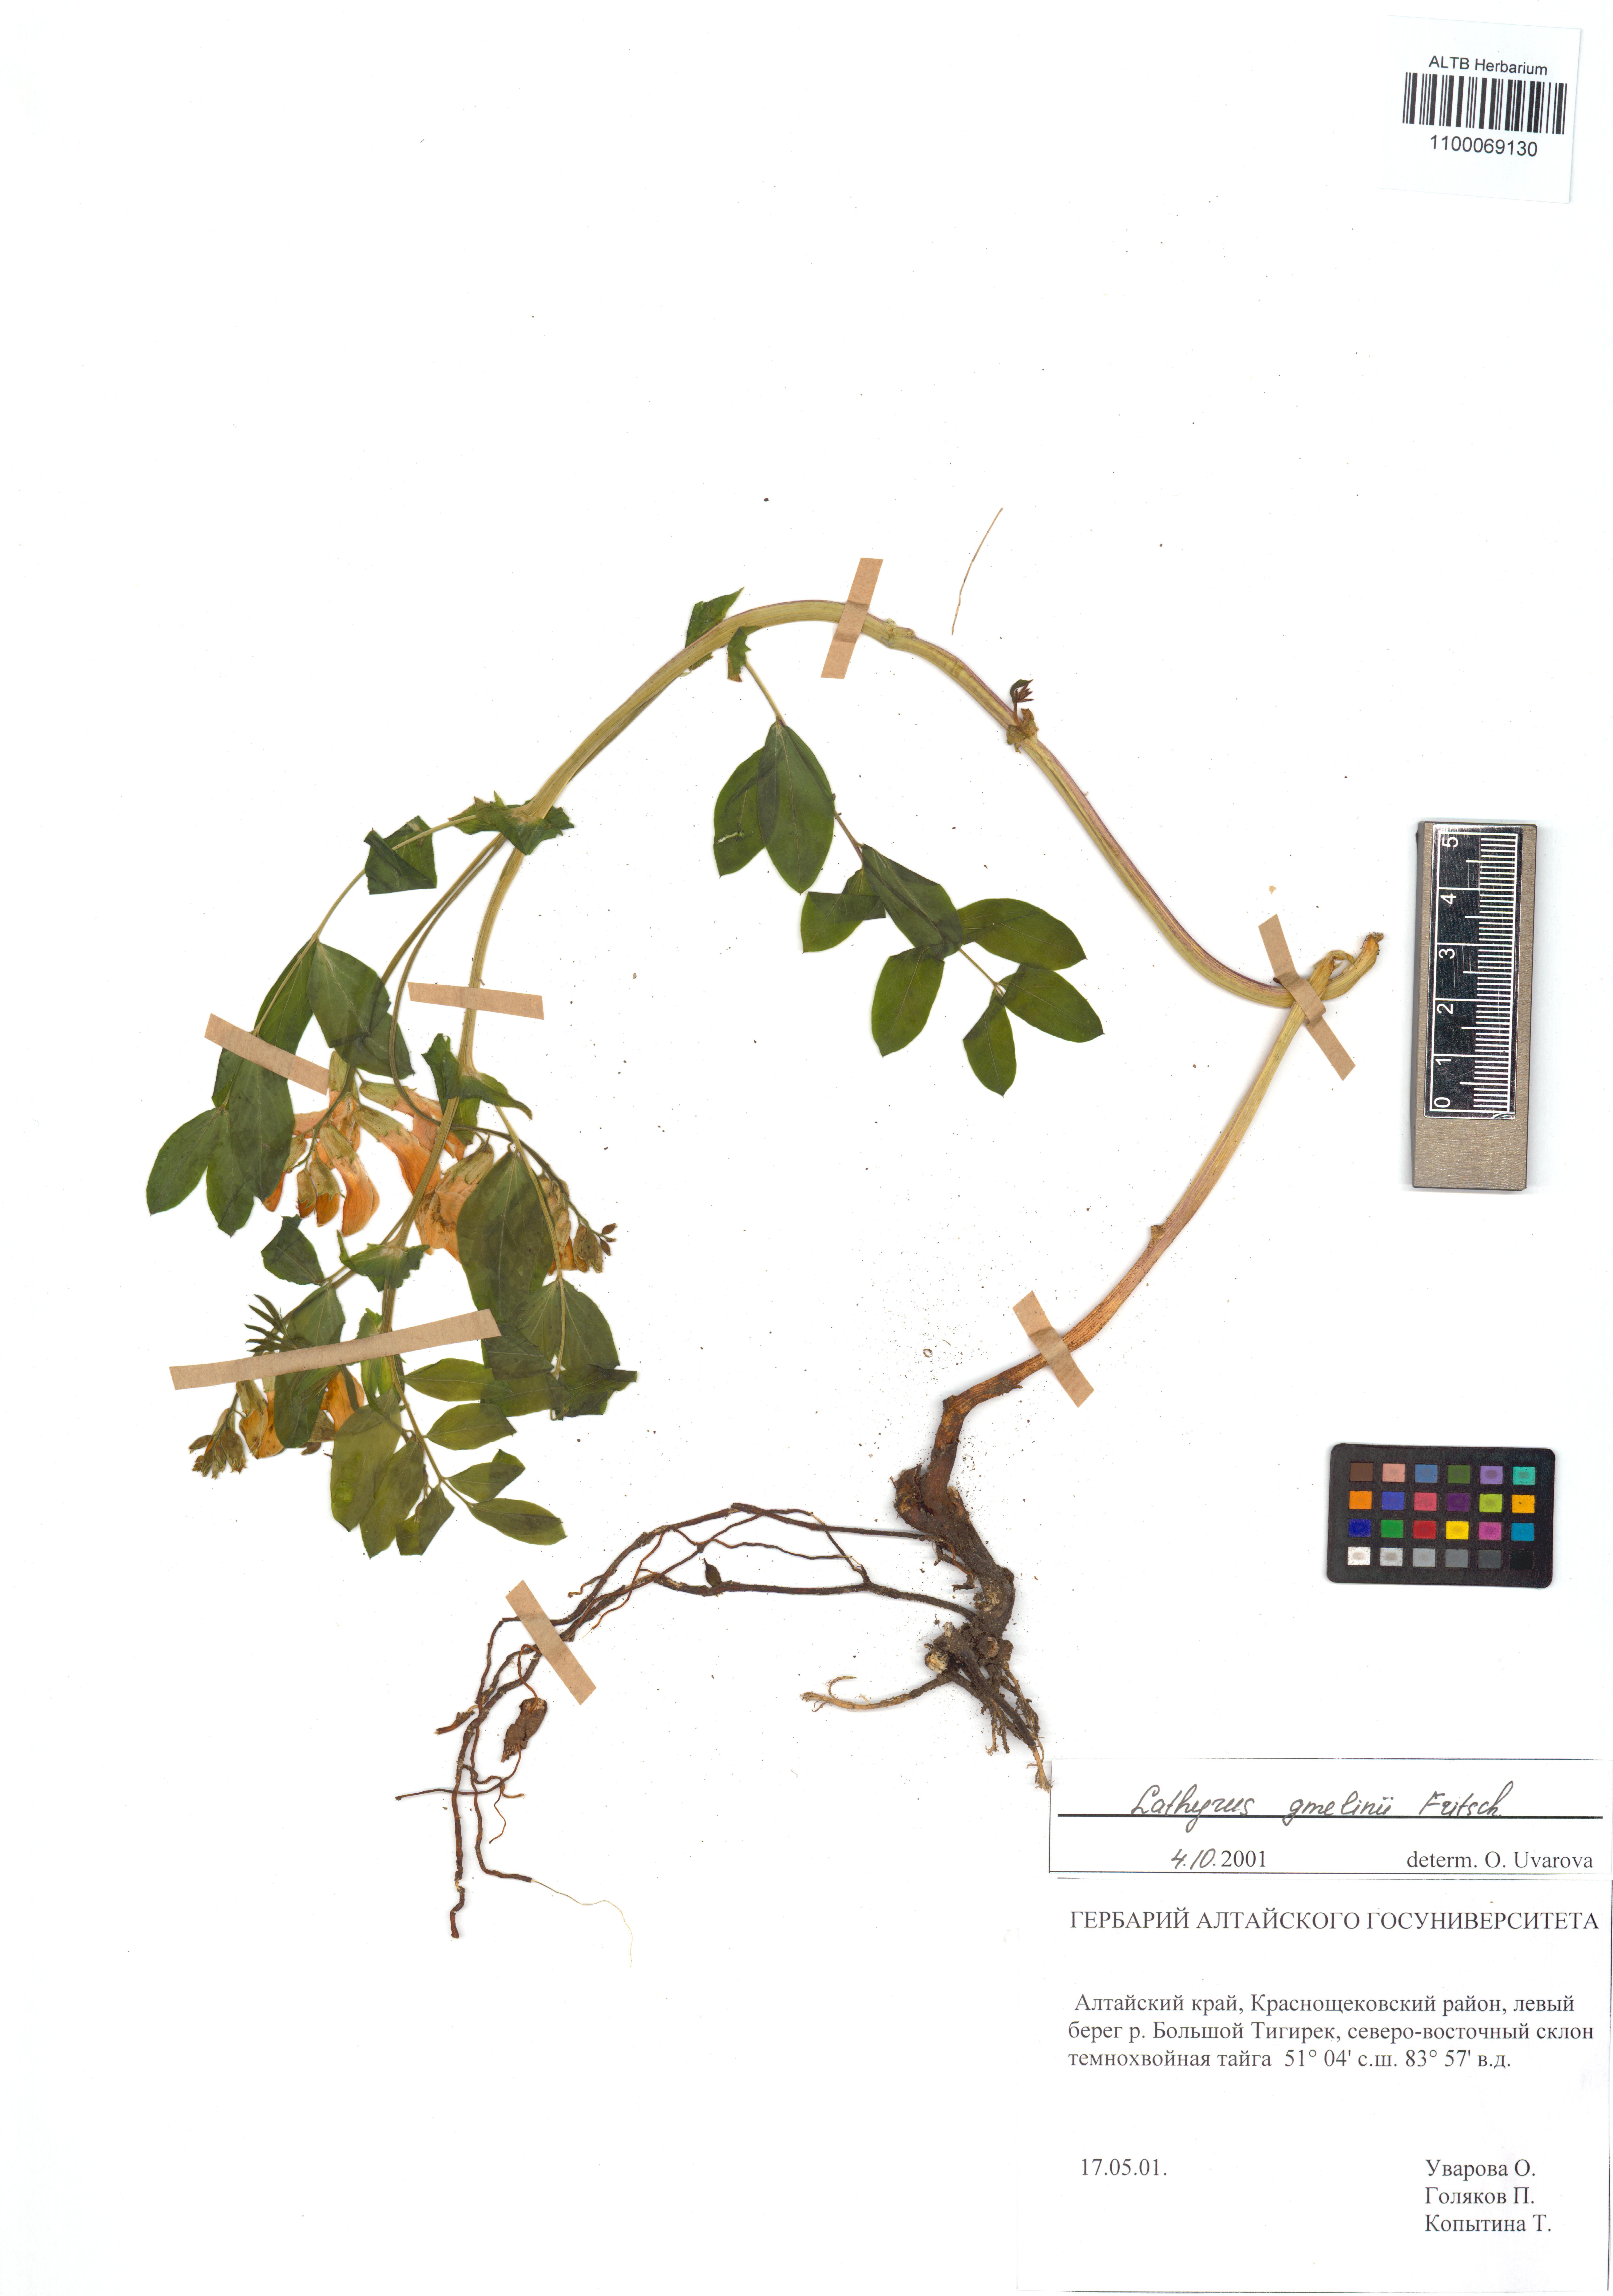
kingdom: Plantae
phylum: Tracheophyta
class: Magnoliopsida
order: Fabales
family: Fabaceae
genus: Lathyrus
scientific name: Lathyrus gmelinii
